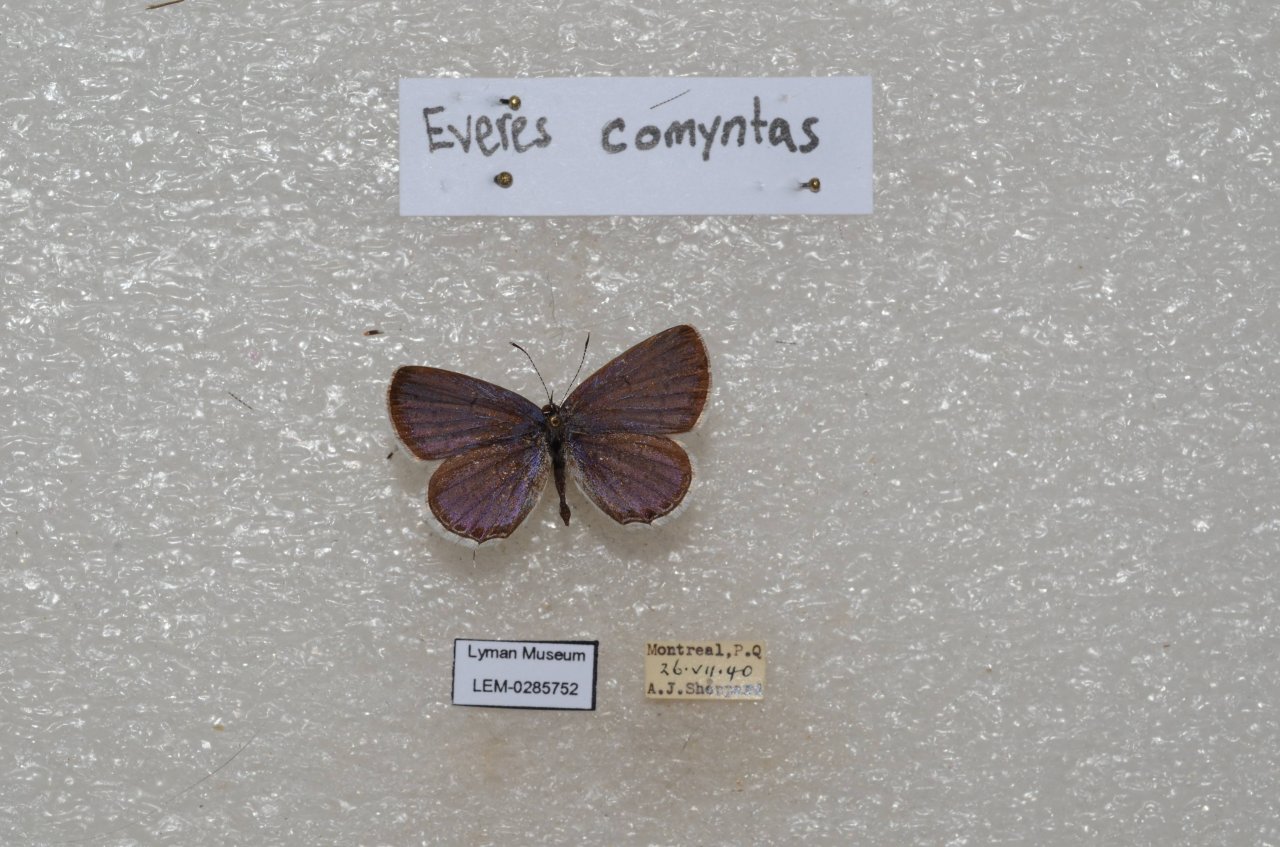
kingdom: Animalia
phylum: Arthropoda
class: Insecta
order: Lepidoptera
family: Lycaenidae
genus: Elkalyce
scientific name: Elkalyce comyntas
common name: Eastern Tailed-Blue
